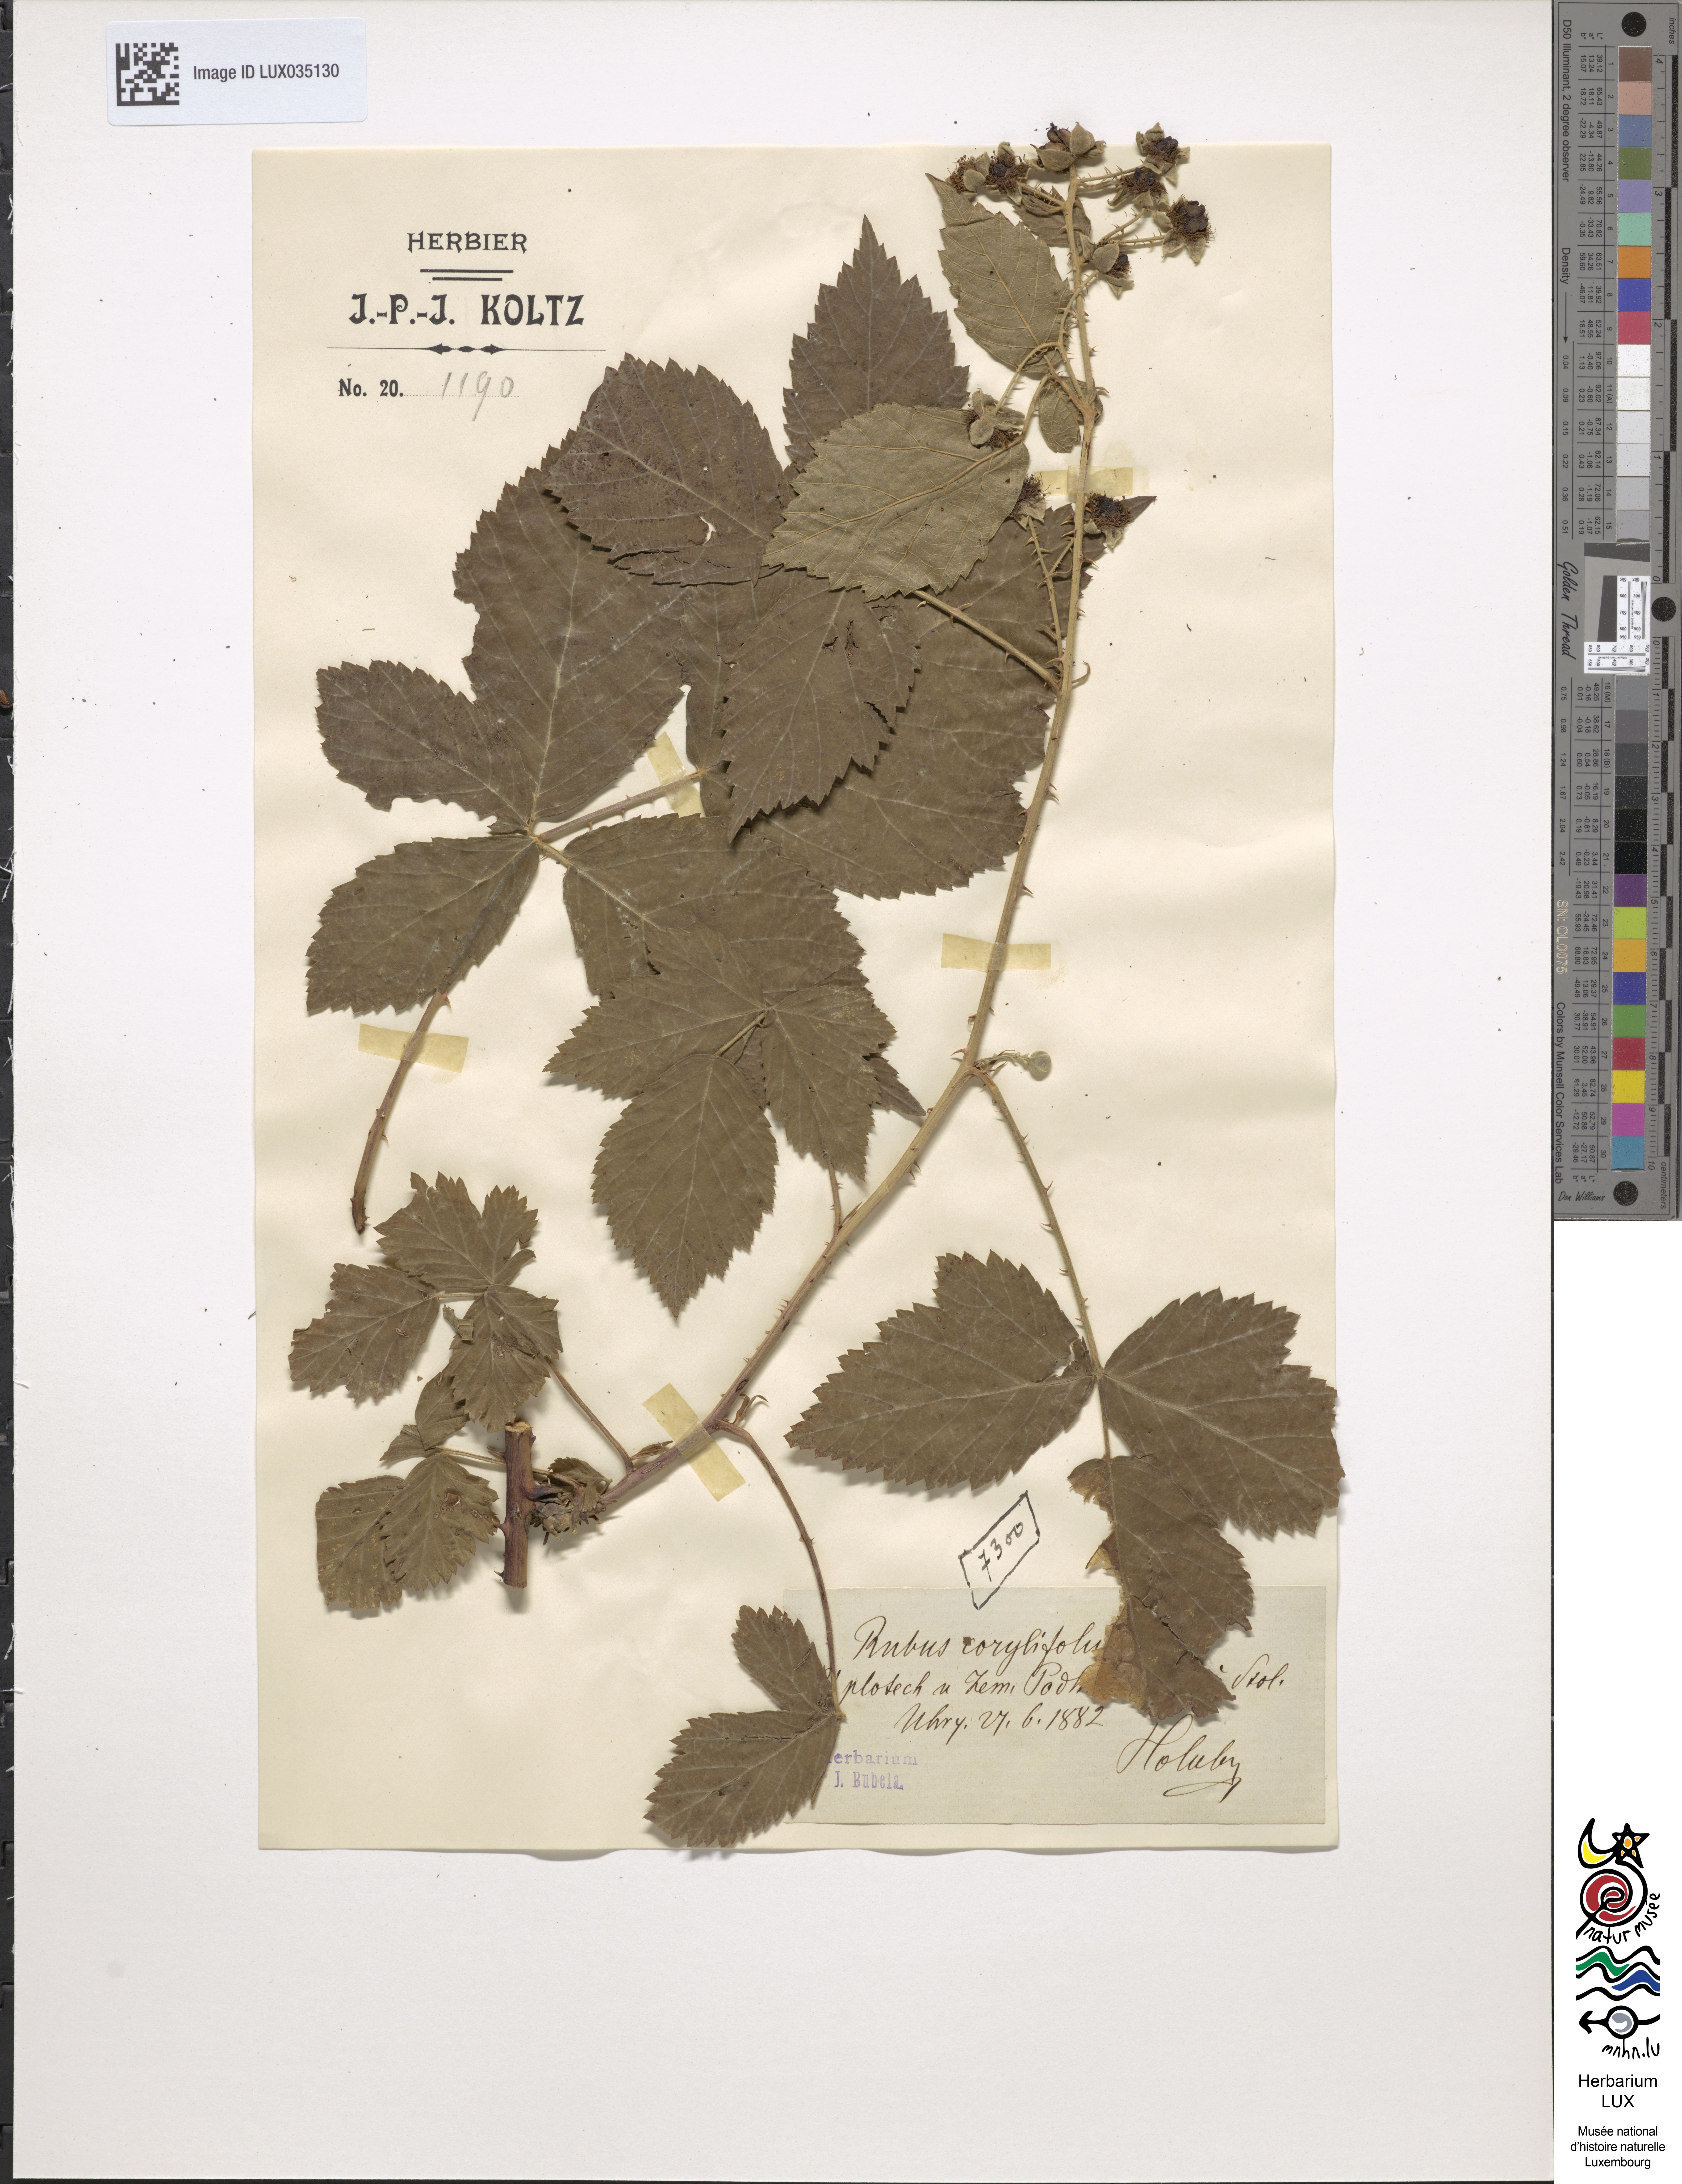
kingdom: Plantae
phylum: Tracheophyta
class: Magnoliopsida
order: Rosales
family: Rosaceae
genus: Rubus
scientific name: Rubus corylifolius
